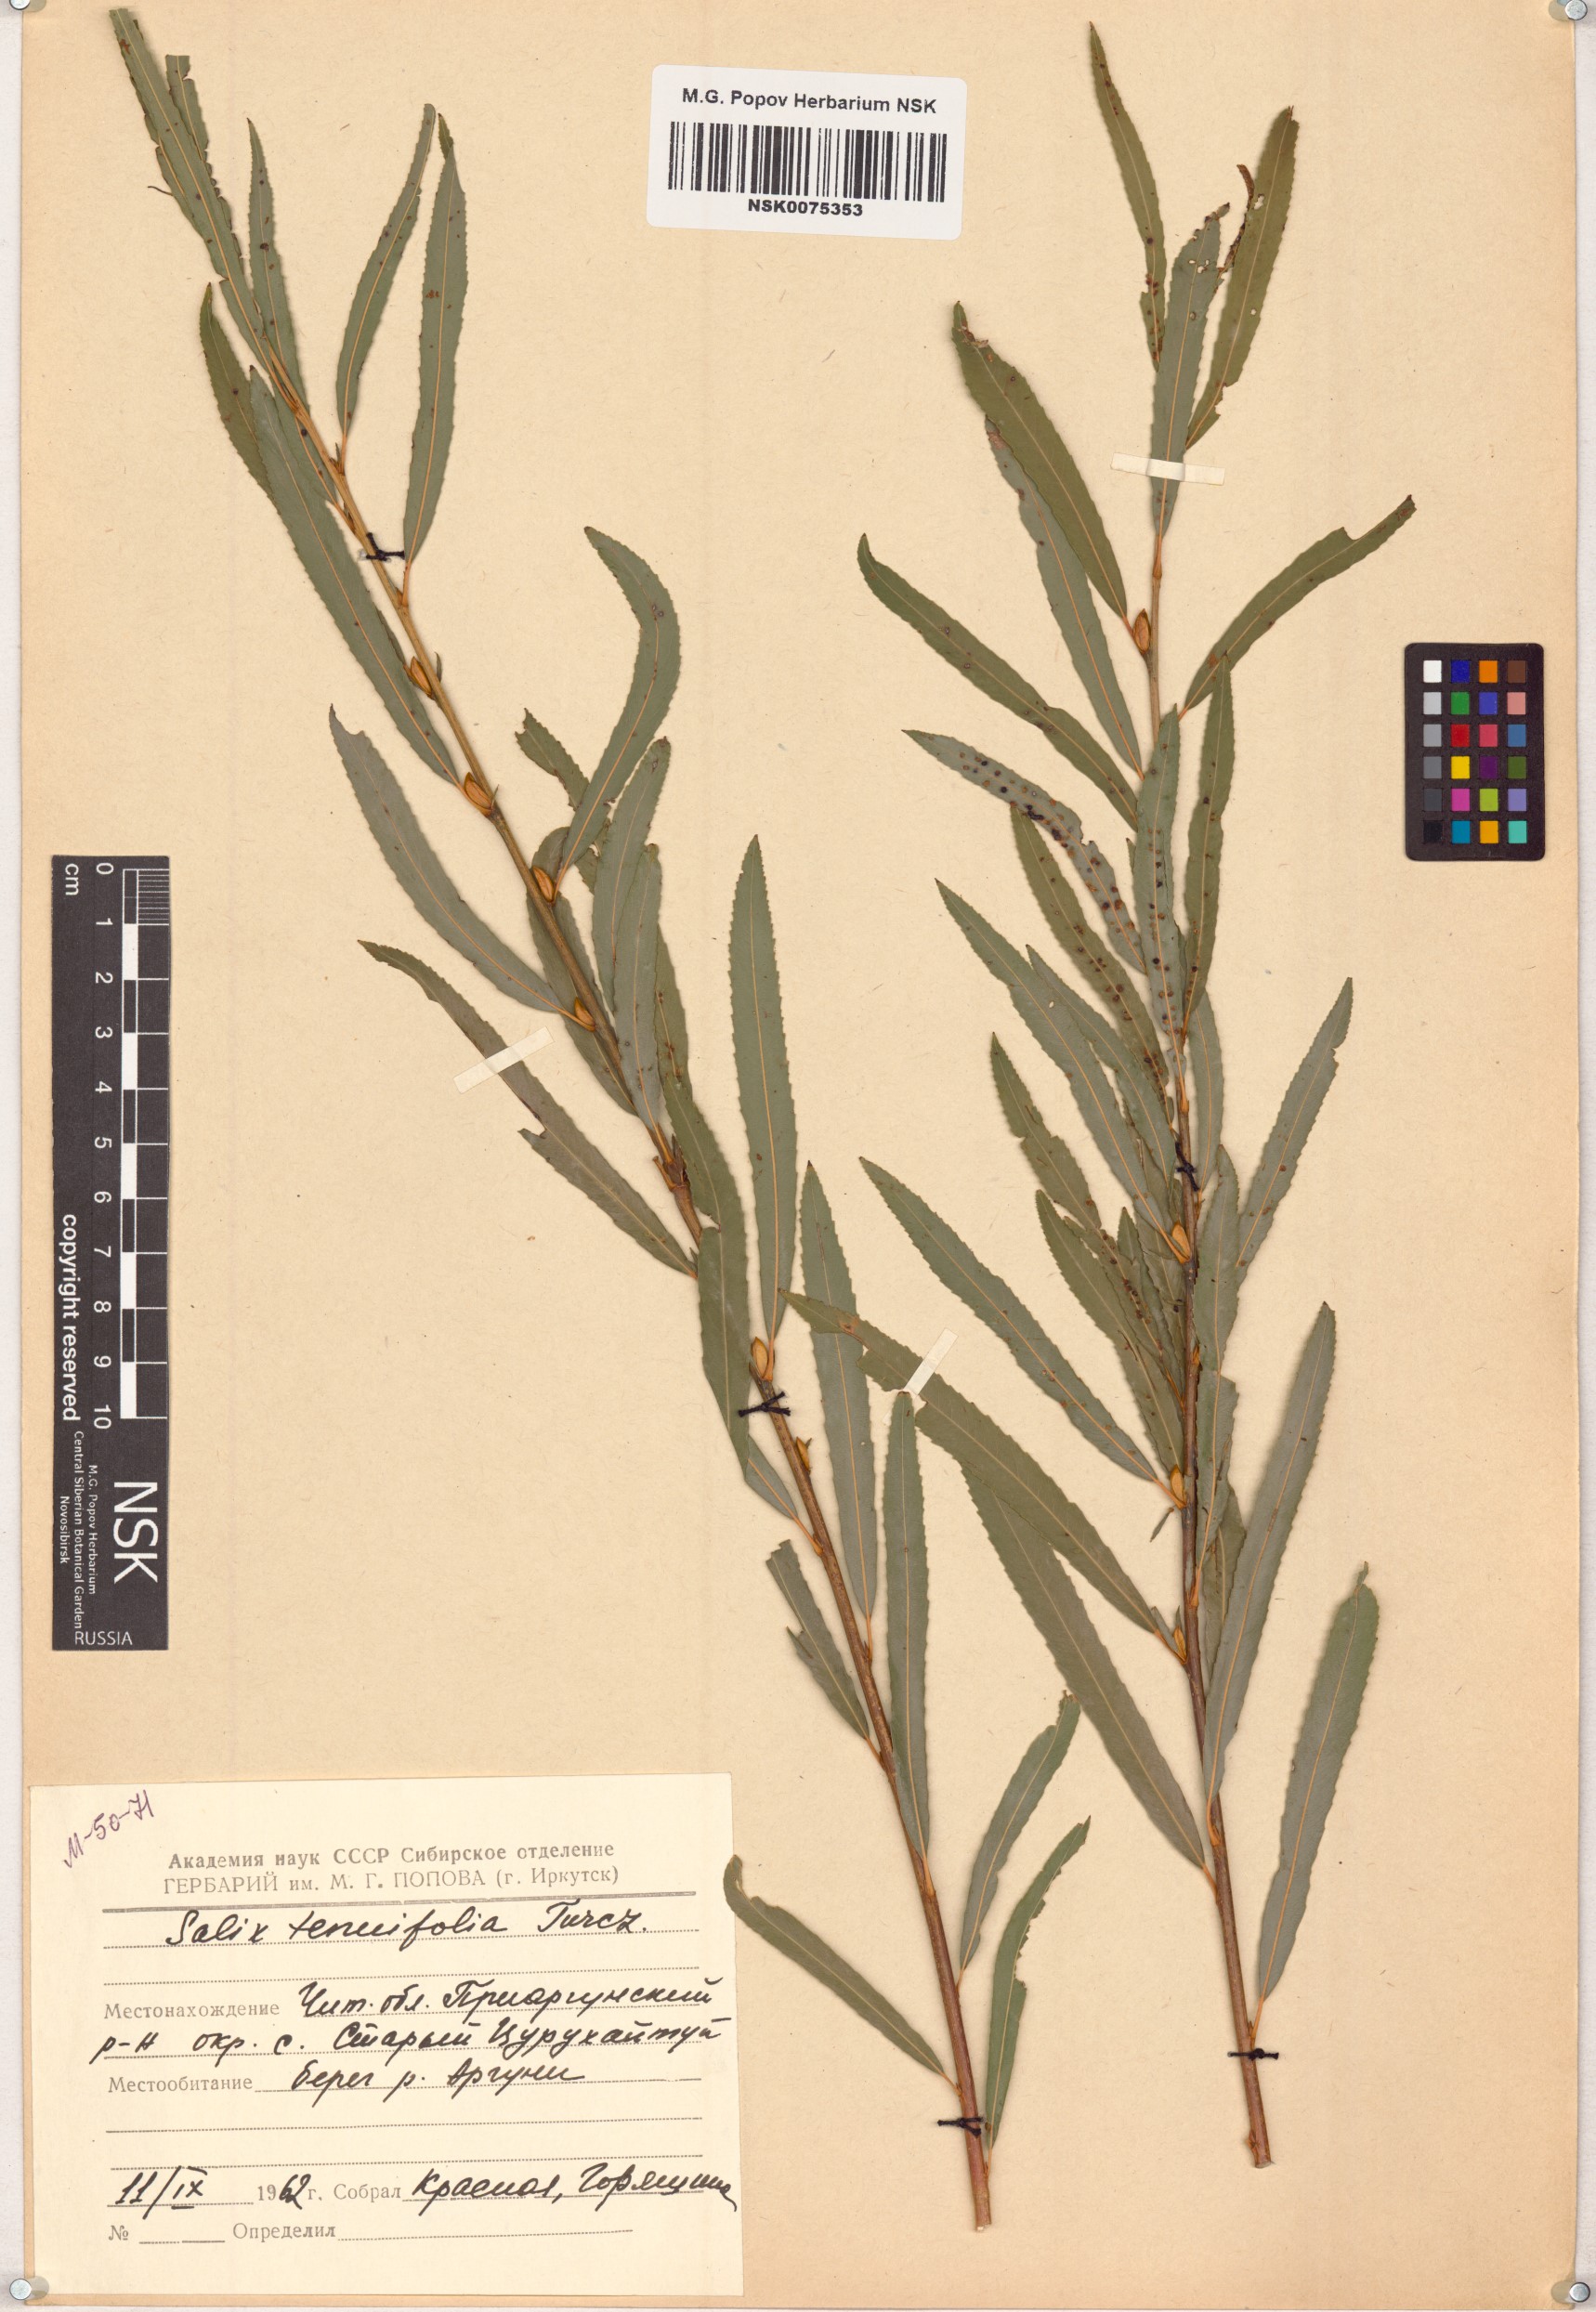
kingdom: Plantae
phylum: Tracheophyta
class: Magnoliopsida
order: Malpighiales
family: Salicaceae
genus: Salix
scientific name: Salix
